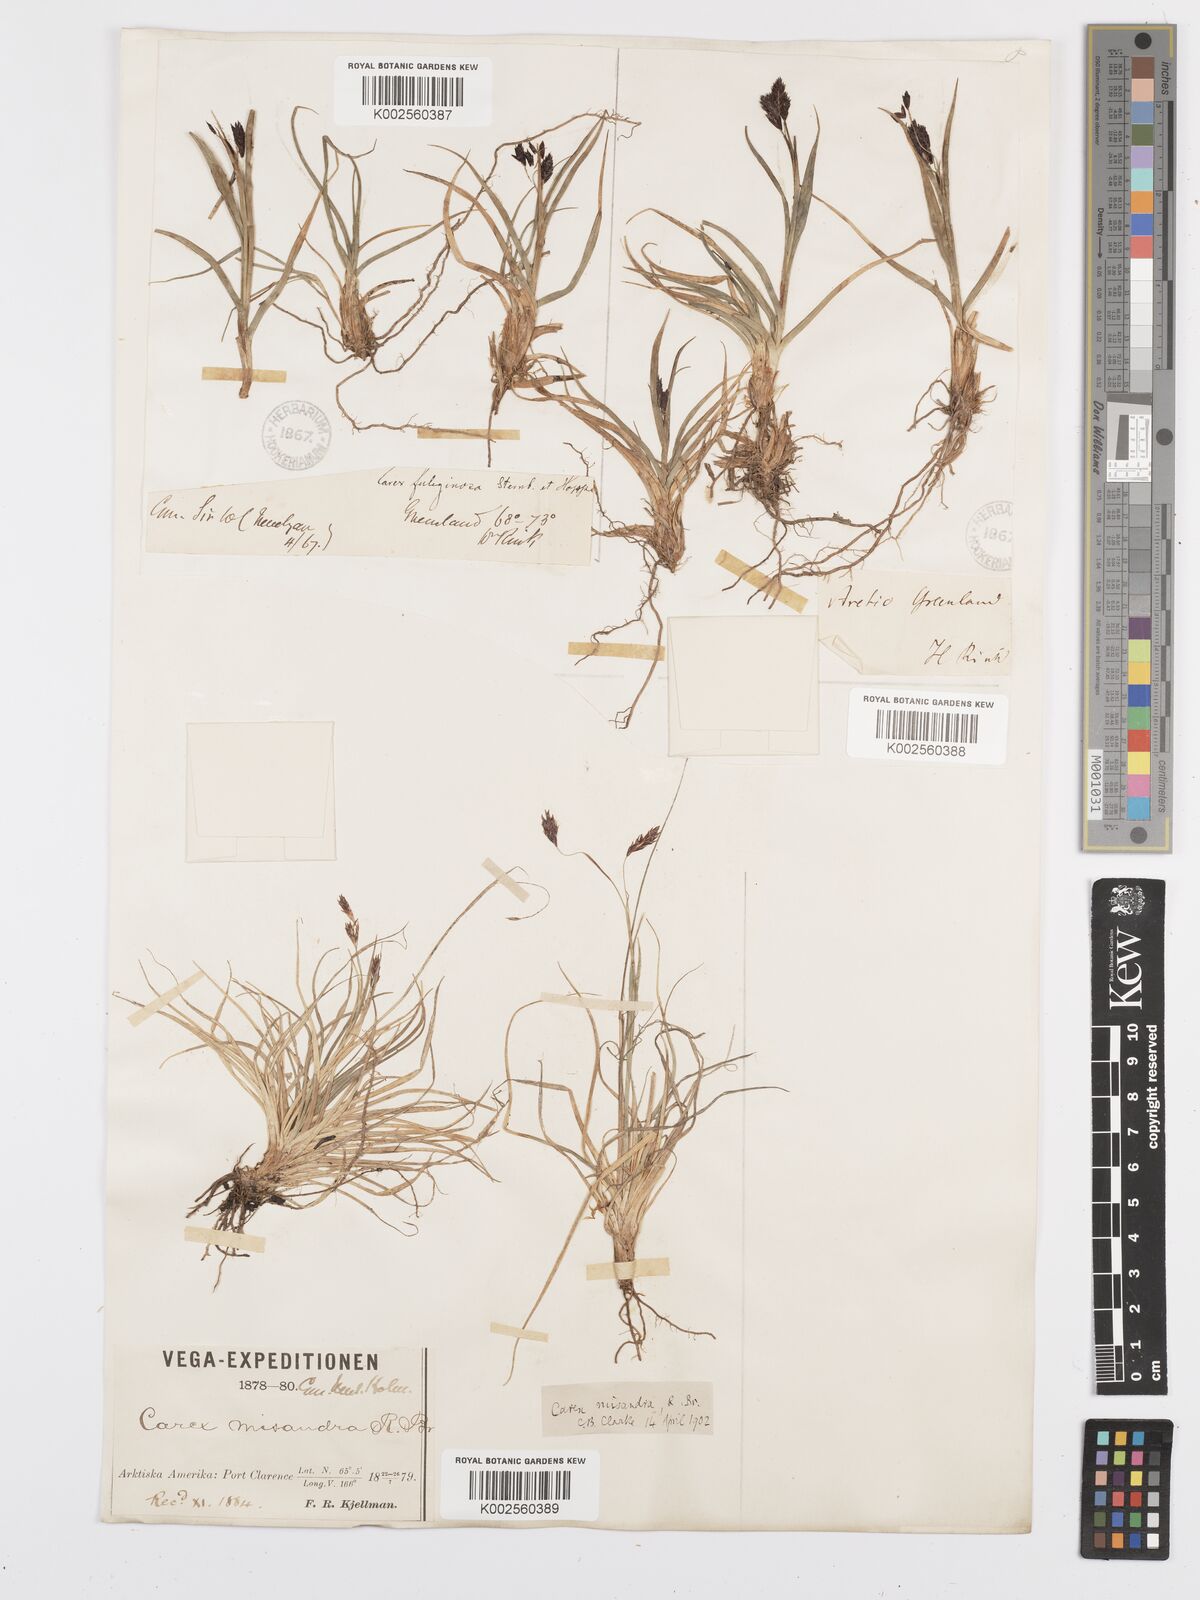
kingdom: Plantae
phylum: Tracheophyta
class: Liliopsida
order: Poales
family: Cyperaceae
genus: Carex
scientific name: Carex fuliginosa
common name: Few-flowered sedge
